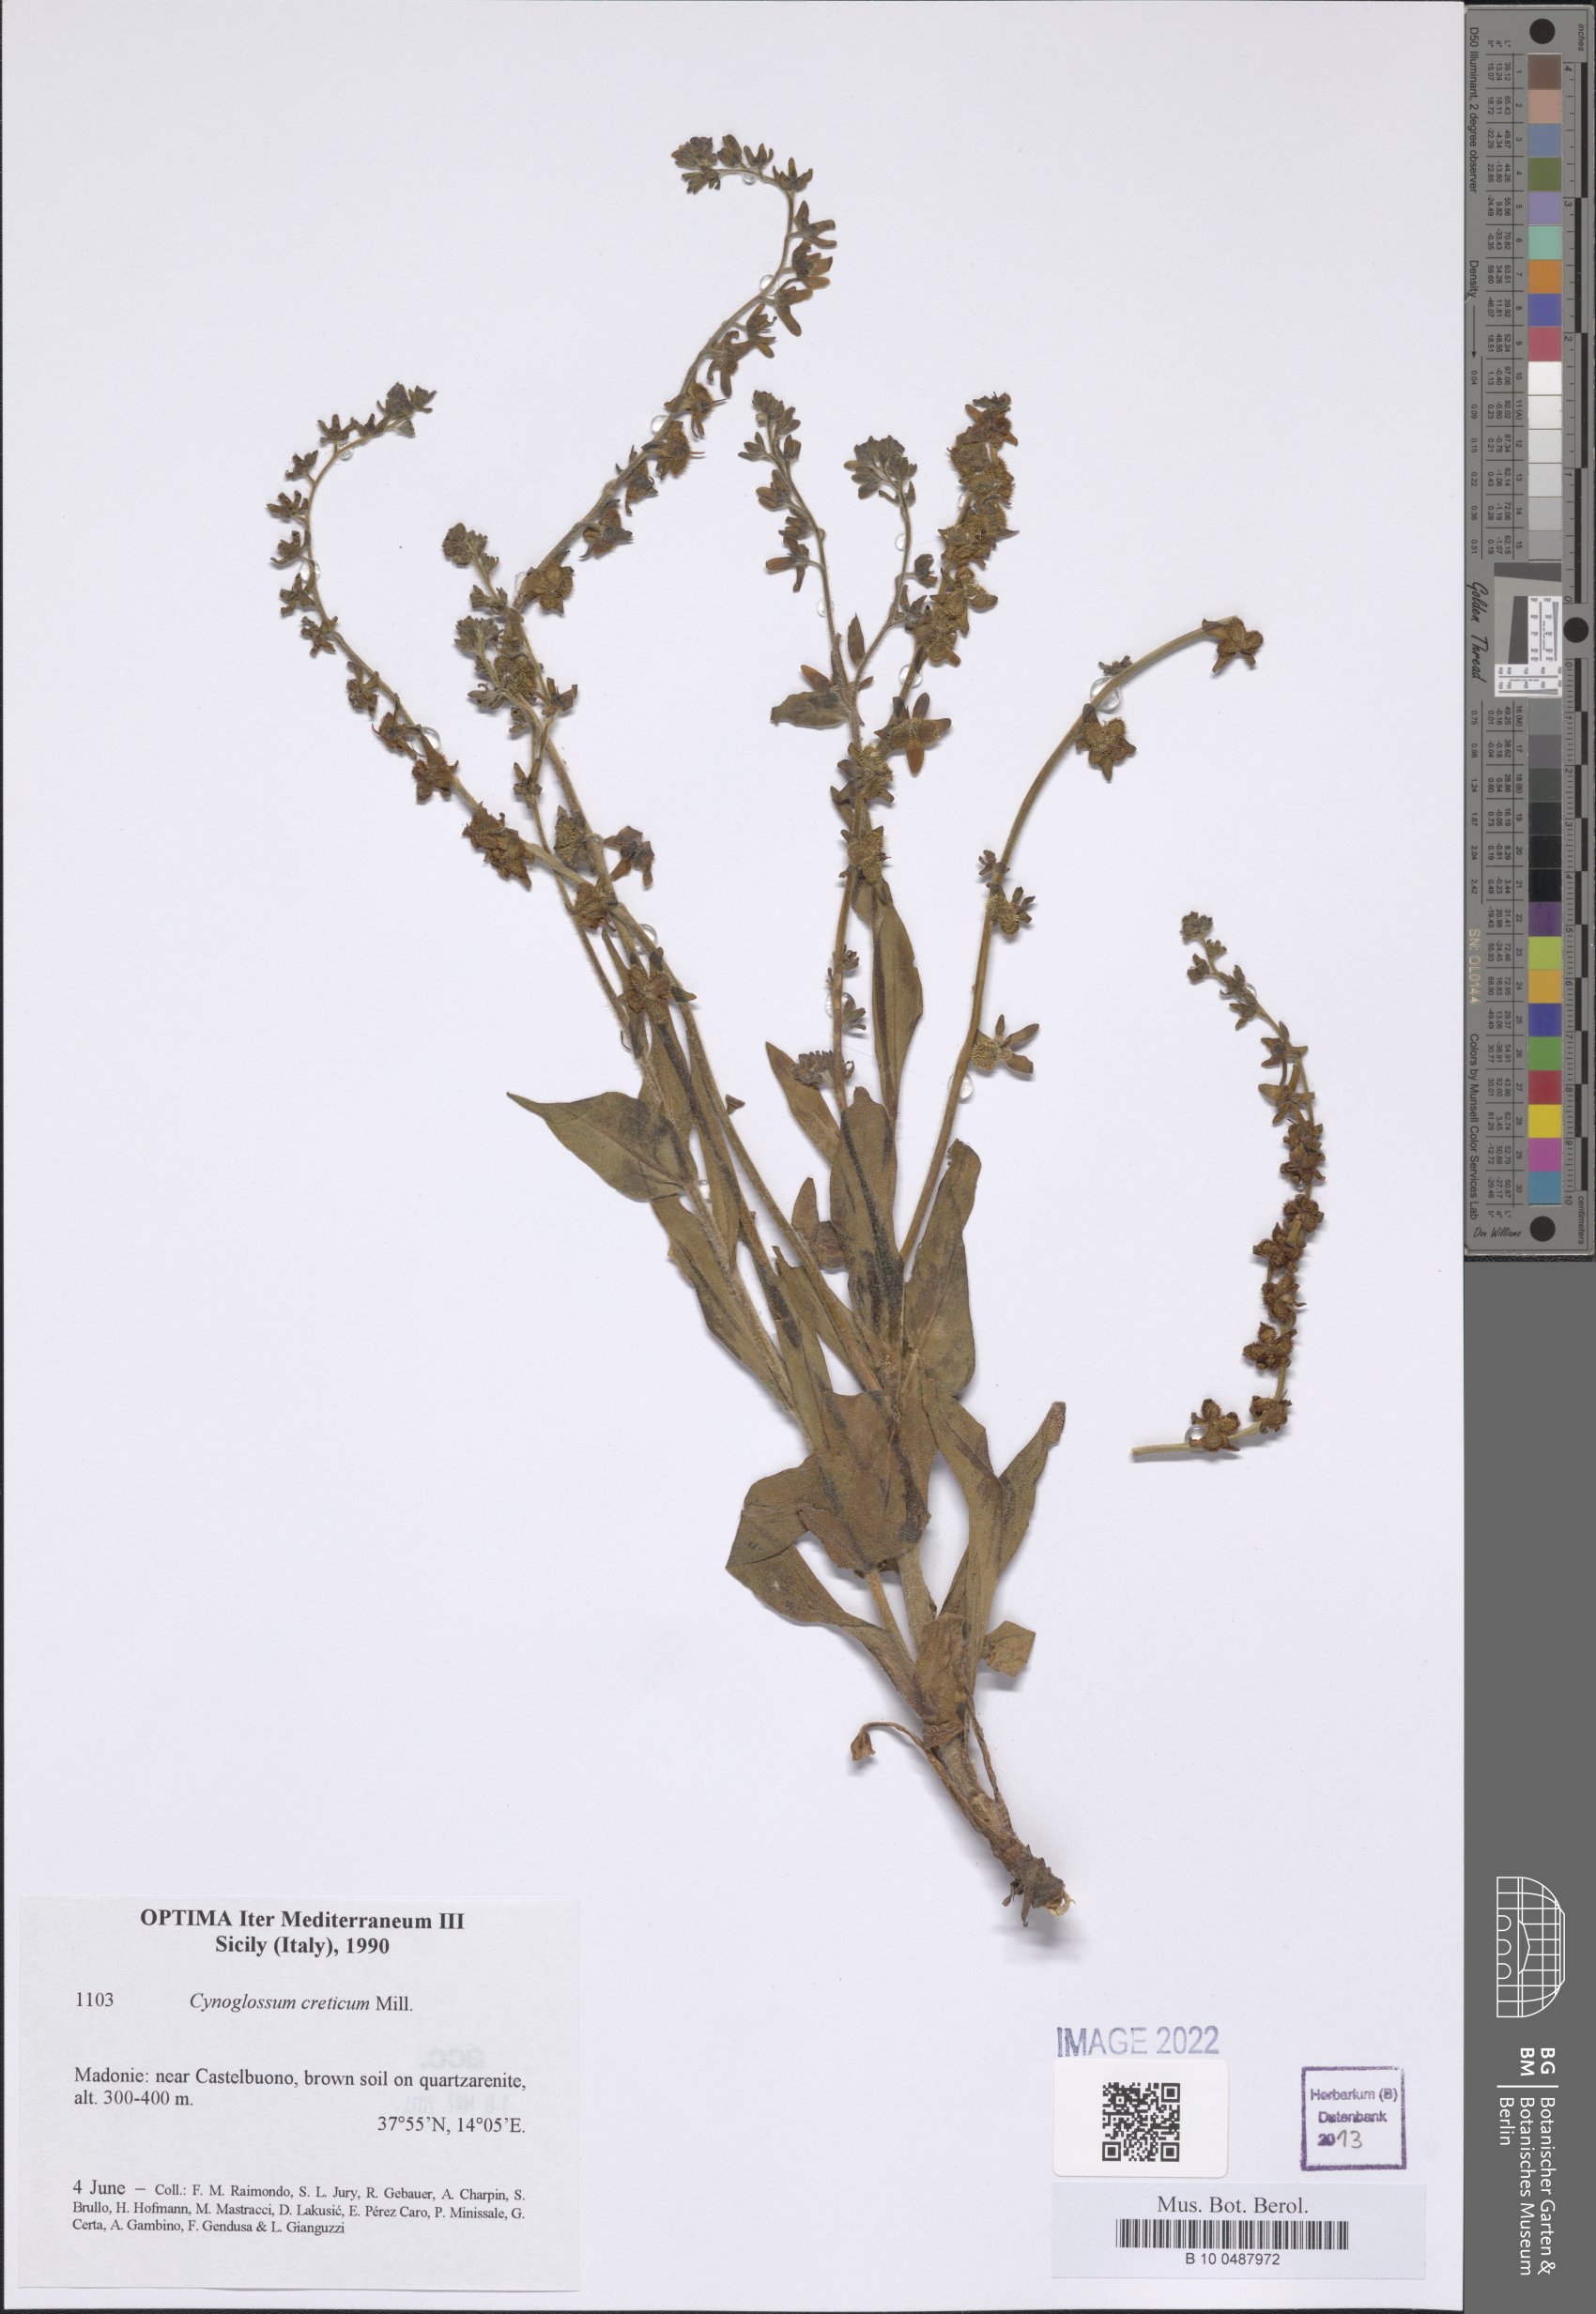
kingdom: Plantae
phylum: Tracheophyta
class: Magnoliopsida
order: Boraginales
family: Boraginaceae
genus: Cynoglossum
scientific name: Cynoglossum creticum
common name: Blue hound's tongue
